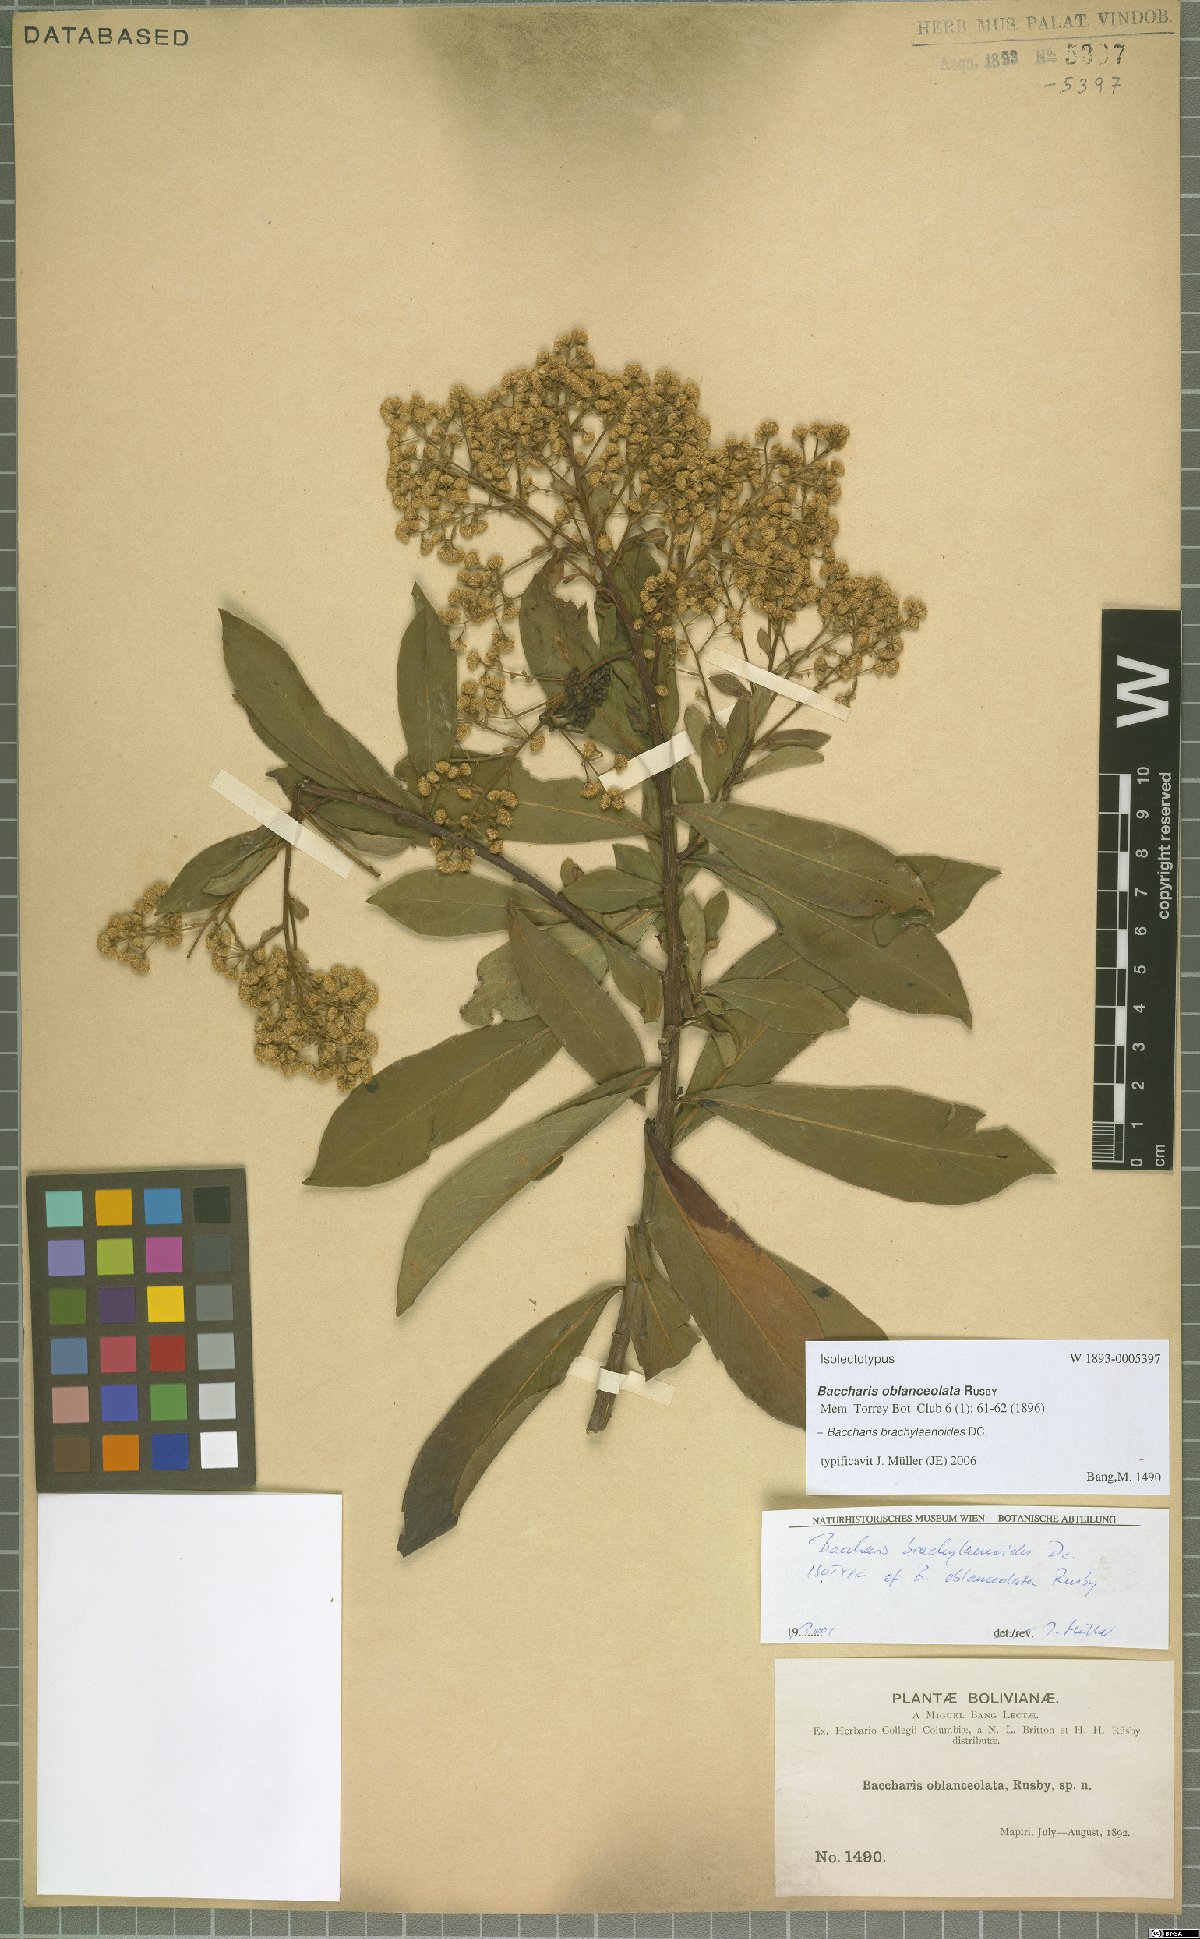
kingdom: Plantae
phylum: Tracheophyta
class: Magnoliopsida
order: Asterales
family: Asteraceae
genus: Baccharis
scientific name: Baccharis oblongifolia
